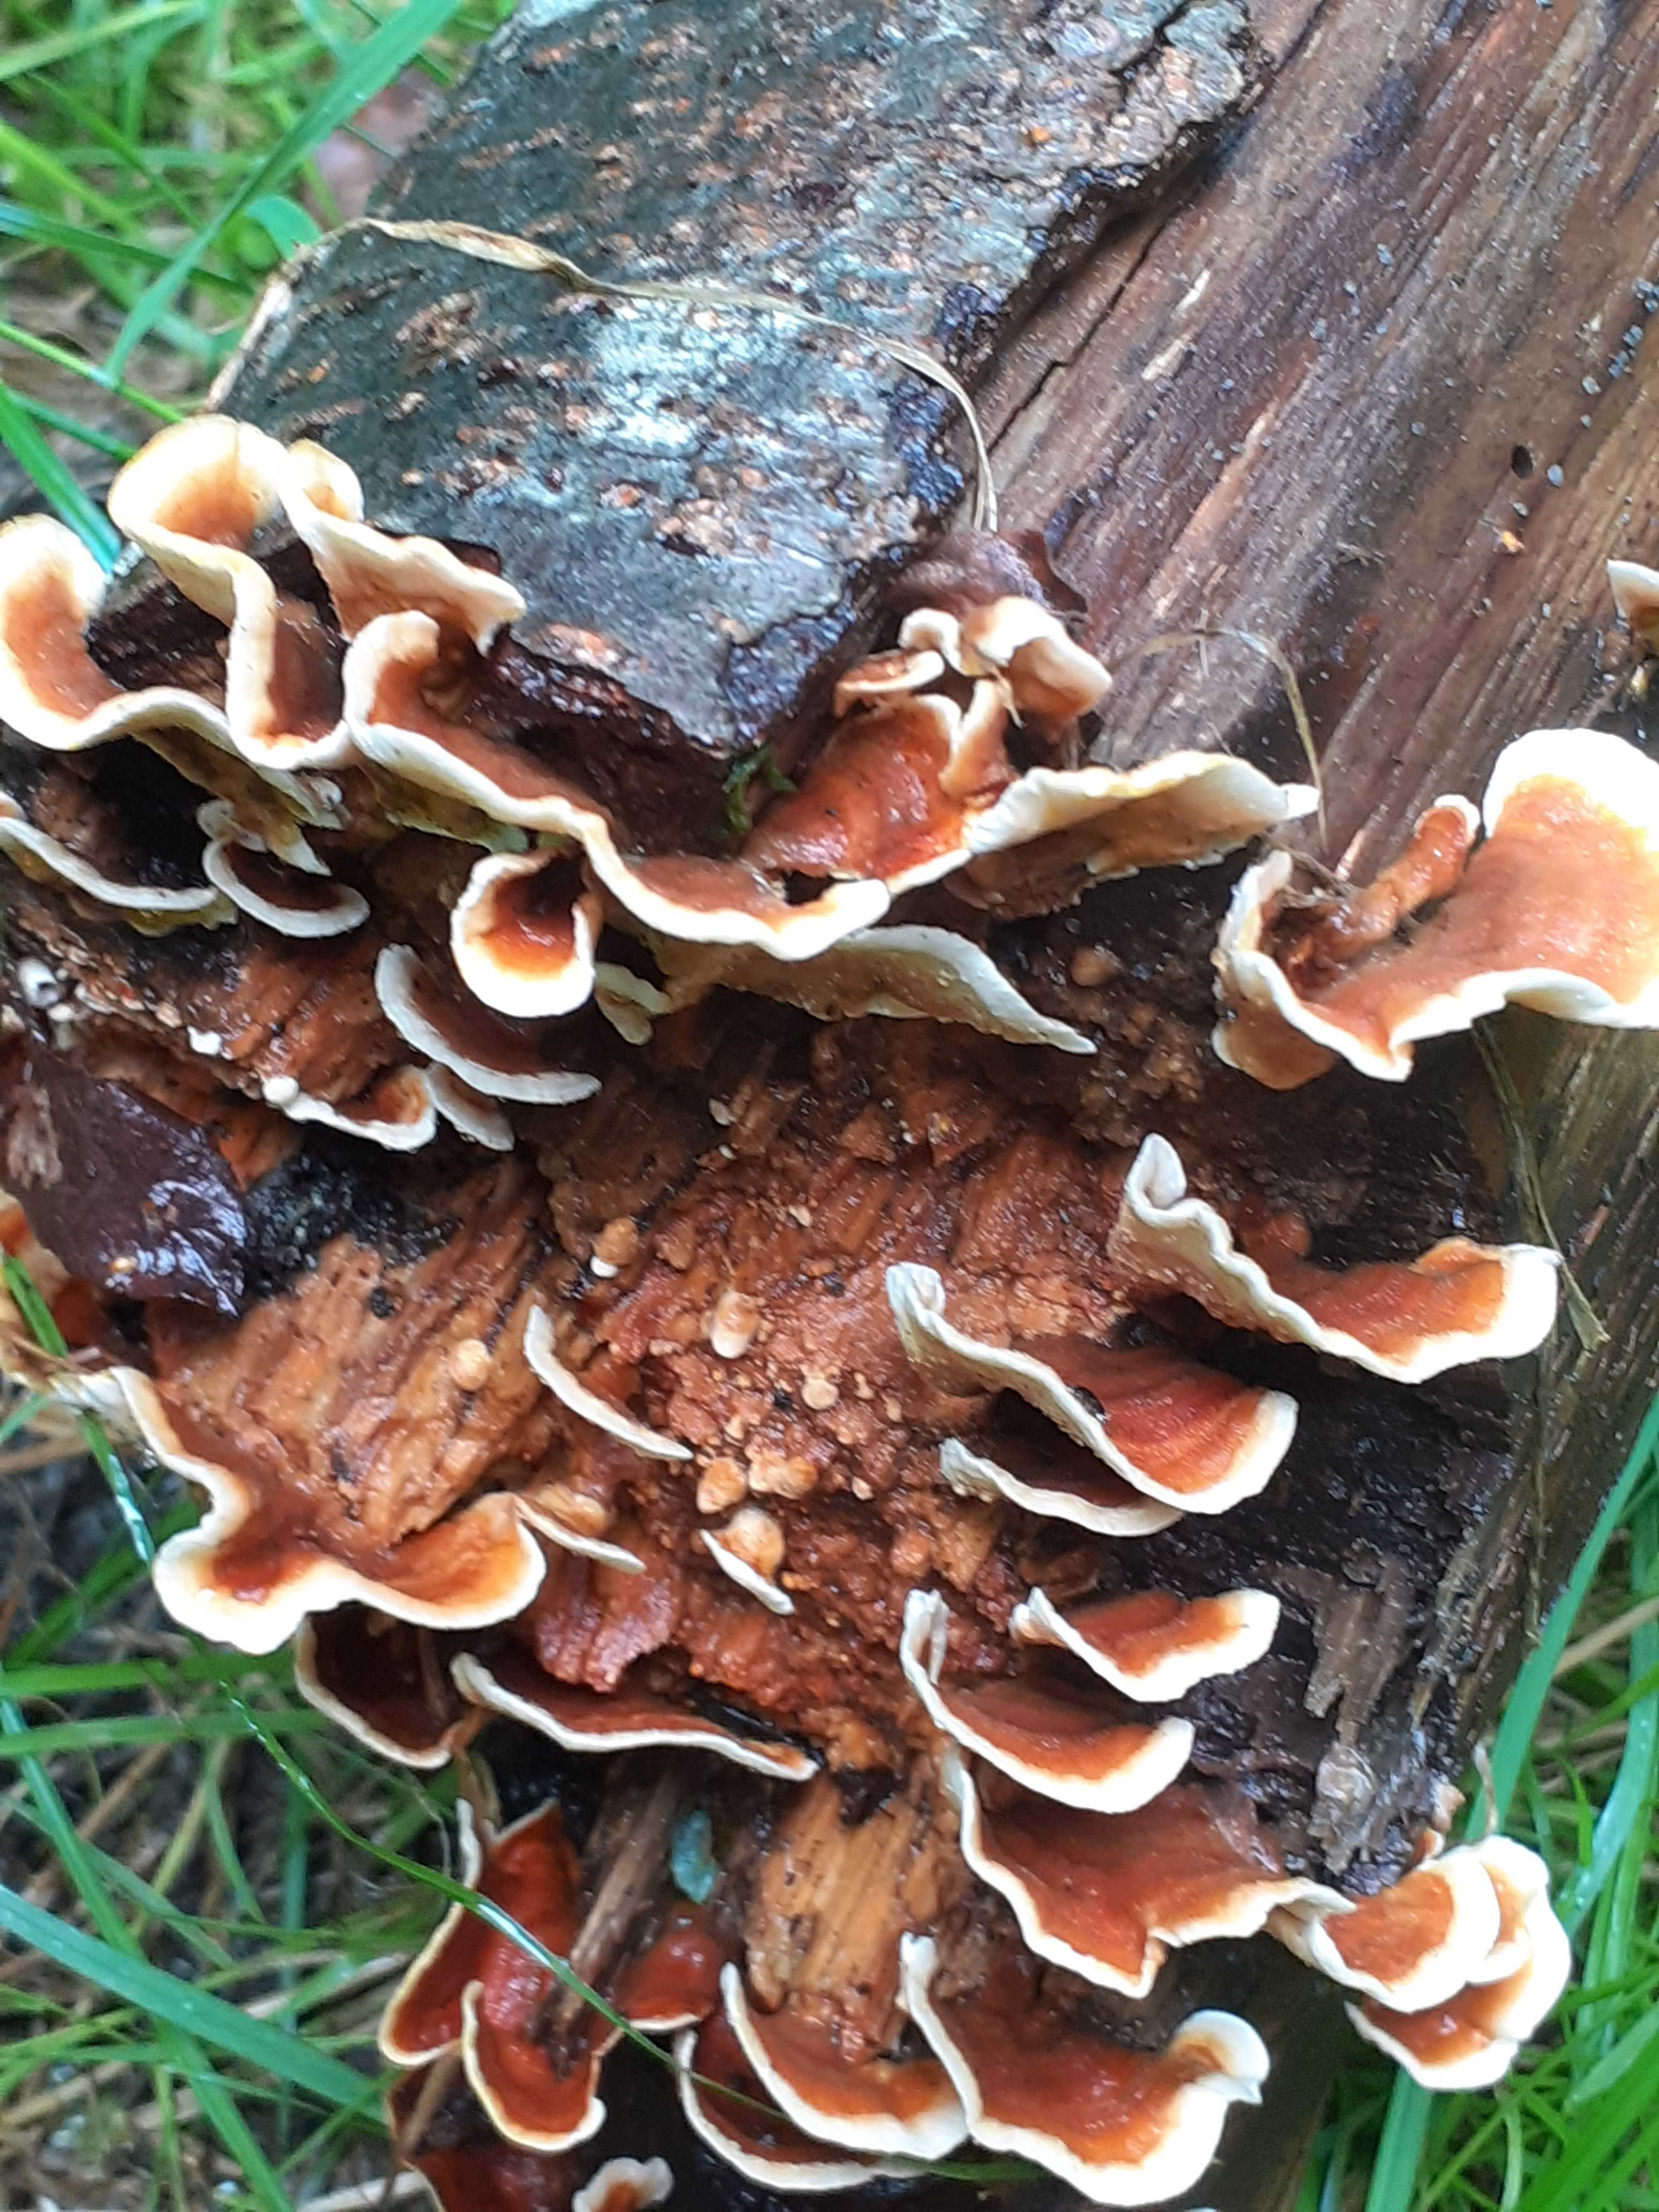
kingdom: Fungi
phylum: Basidiomycota
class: Agaricomycetes
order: Russulales
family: Stereaceae
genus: Stereum
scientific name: Stereum subtomentosum
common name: smuk lædersvamp
